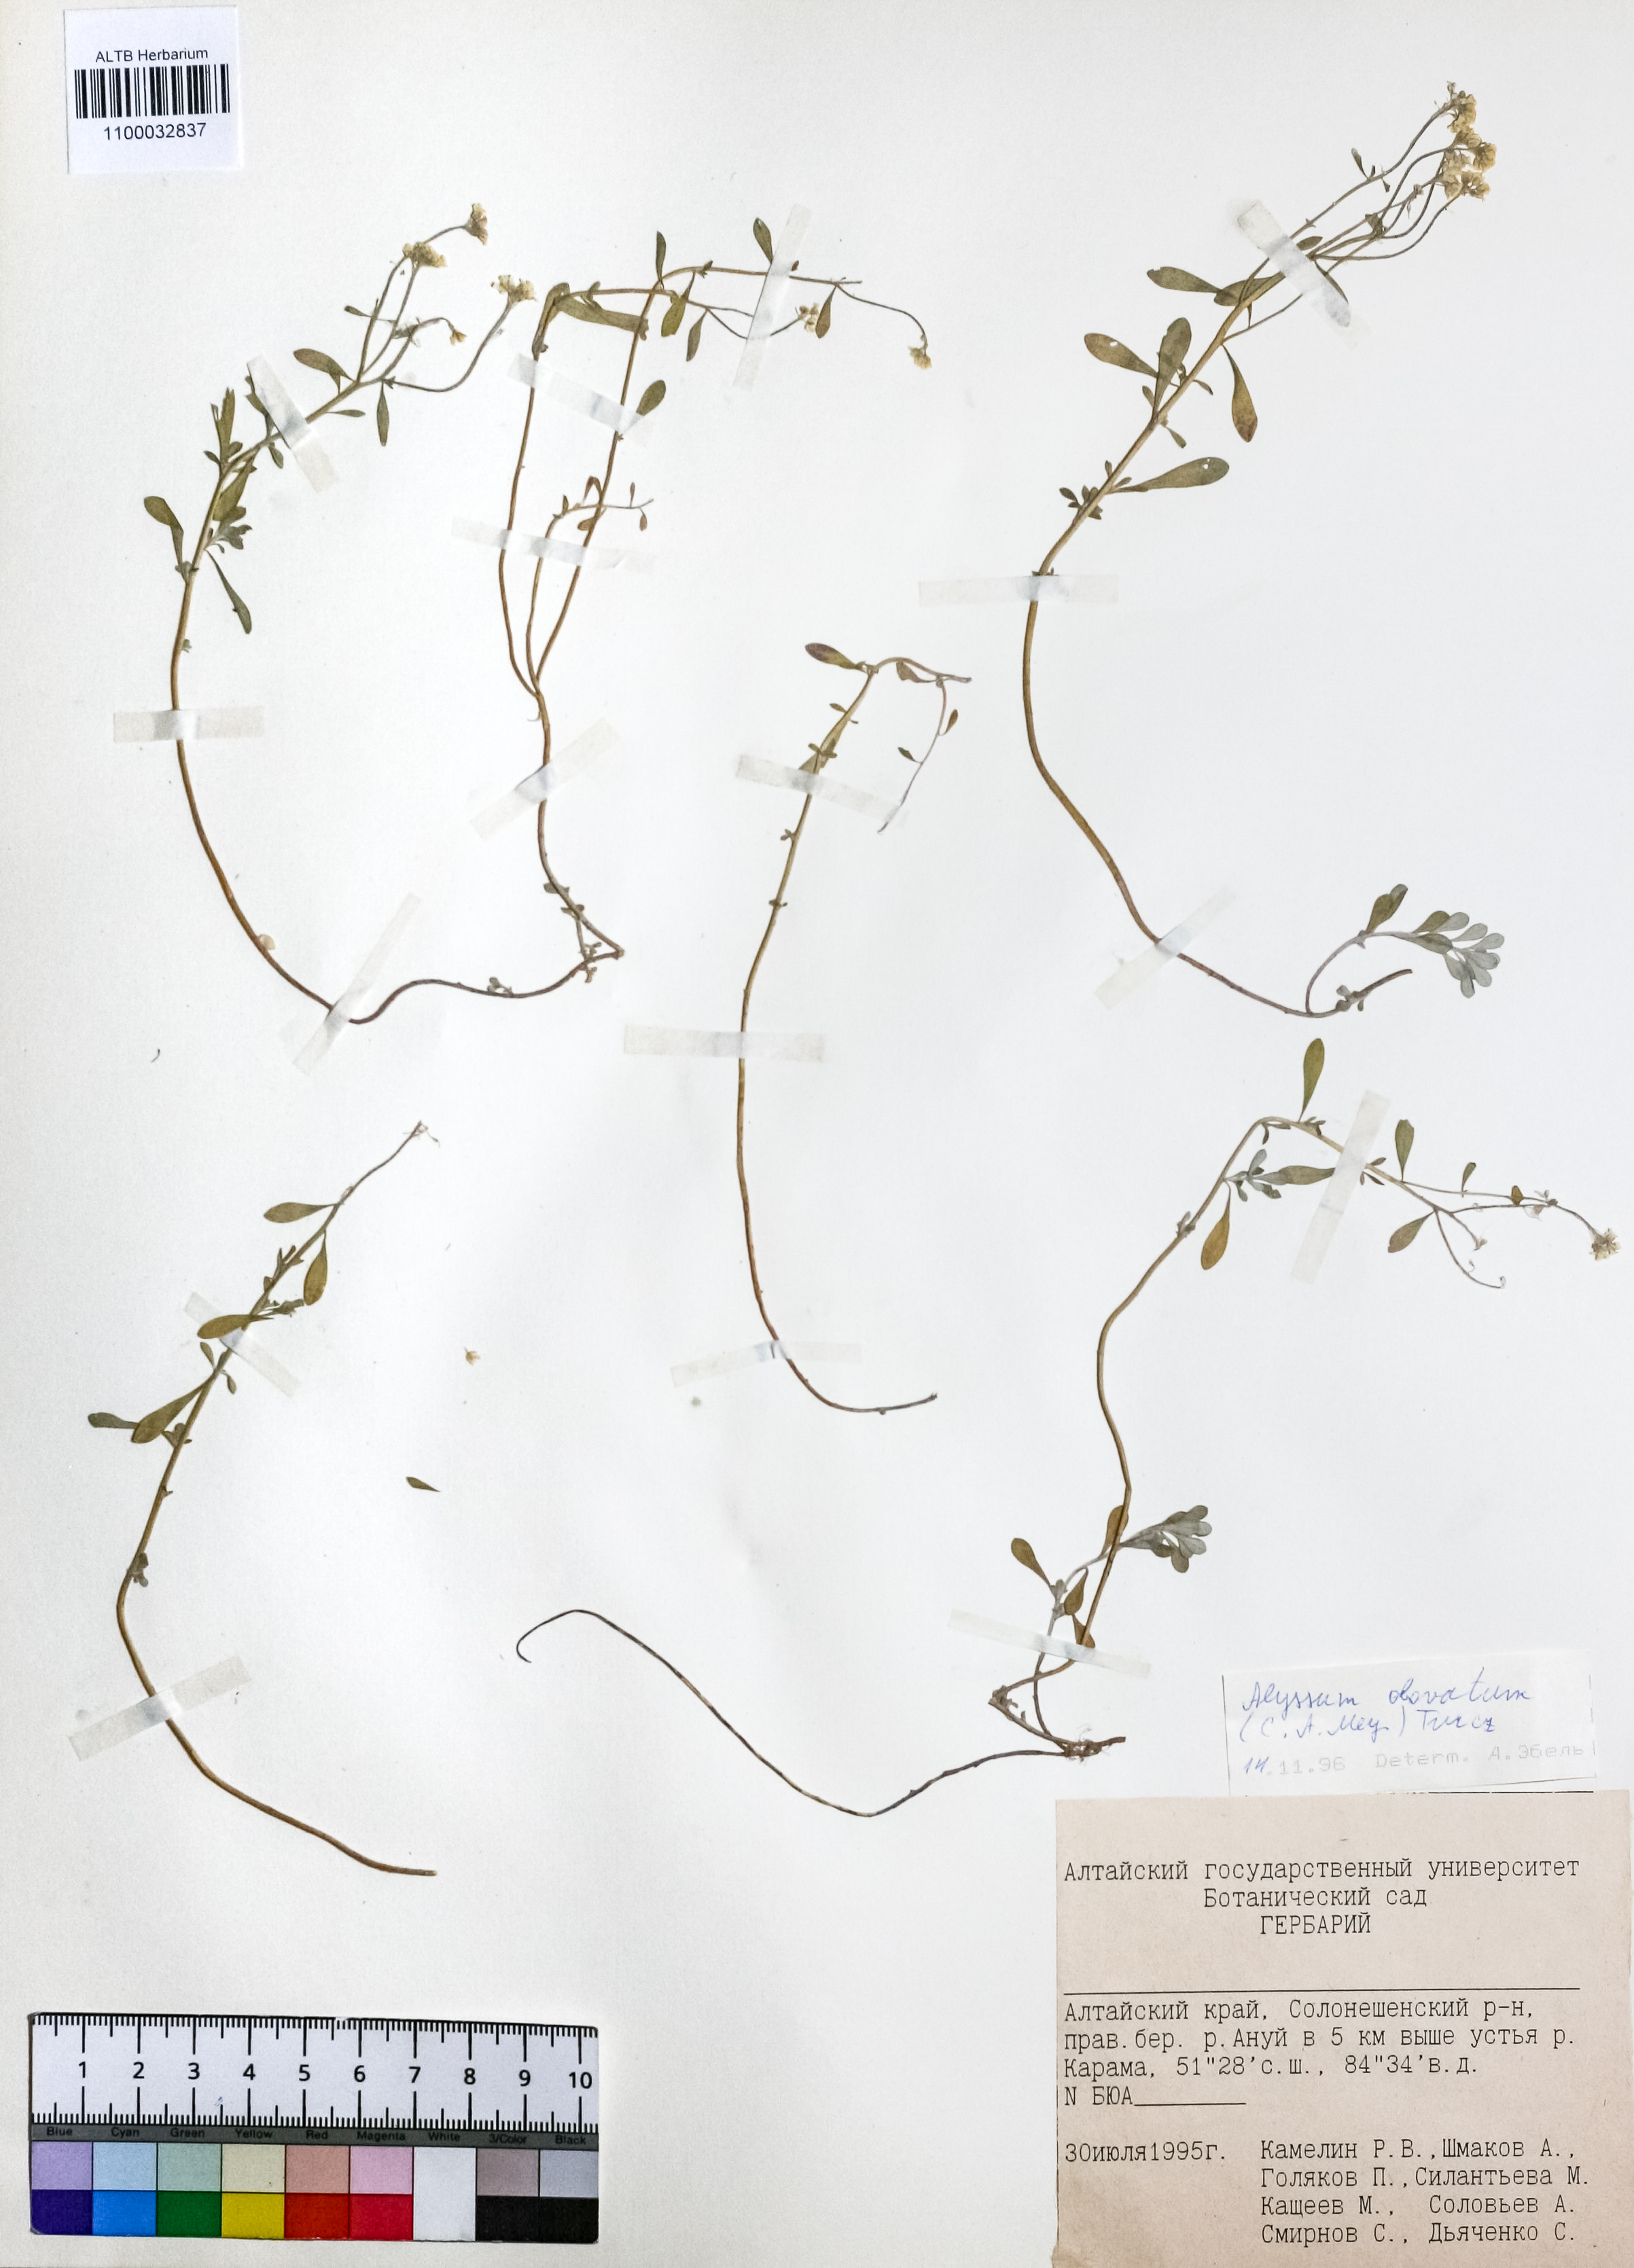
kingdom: Plantae
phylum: Tracheophyta
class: Magnoliopsida
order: Brassicales
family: Brassicaceae
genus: Odontarrhena
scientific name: Odontarrhena obovata
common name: American alyssum
